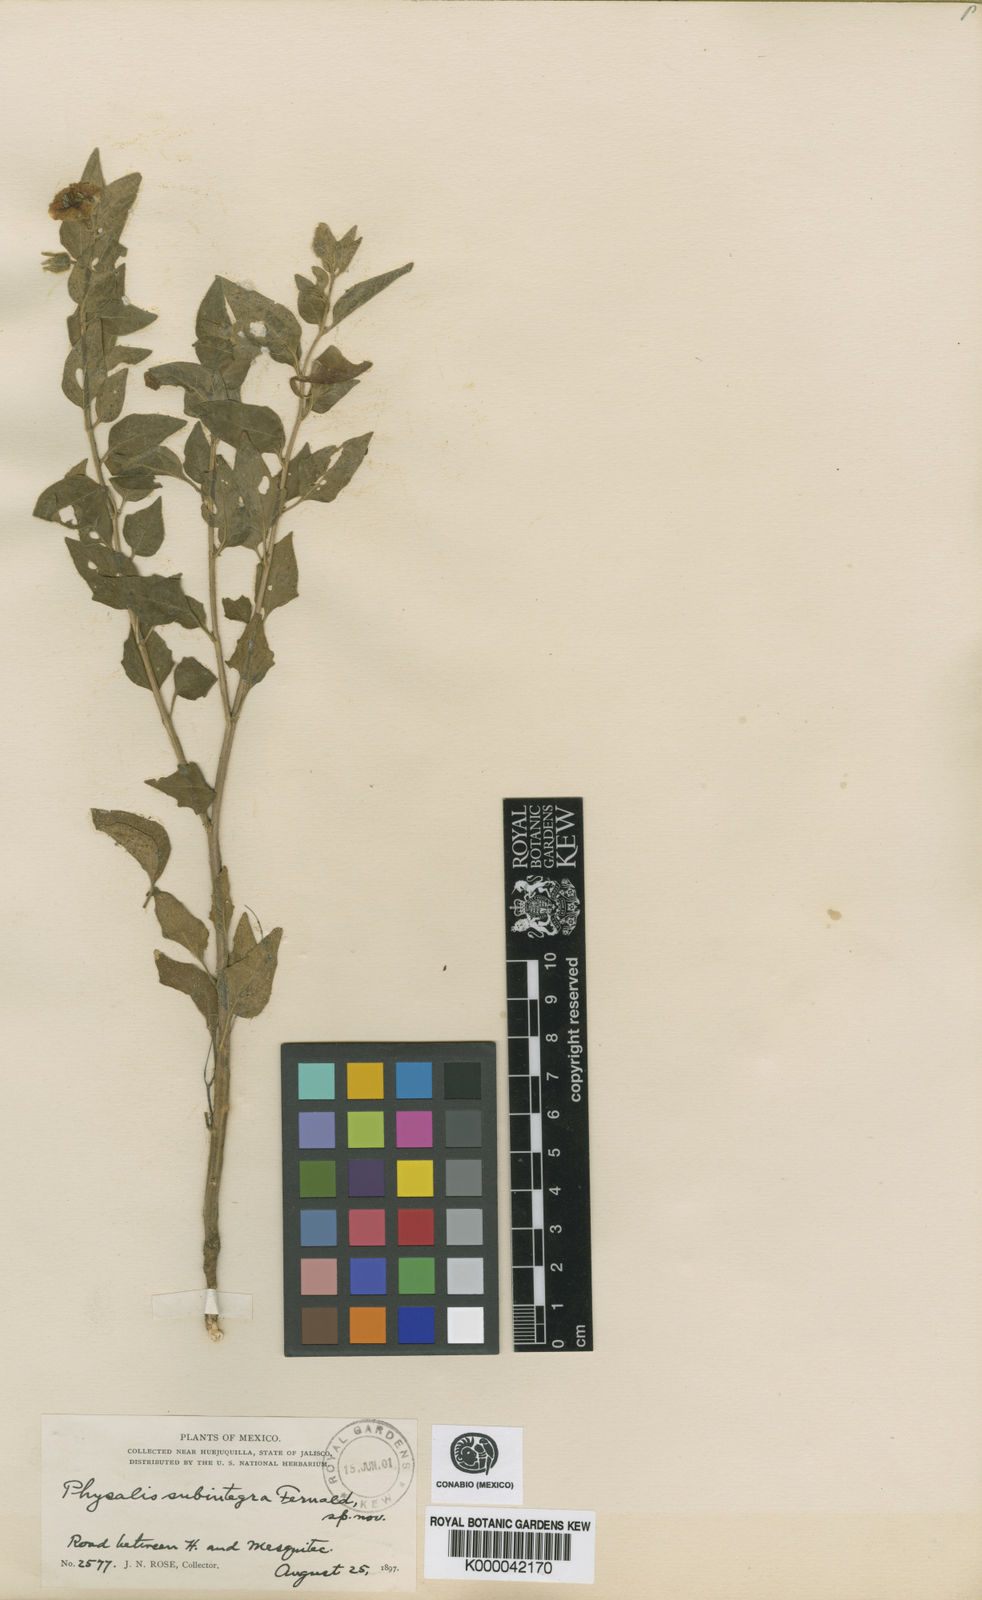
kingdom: Plantae
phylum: Tracheophyta
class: Magnoliopsida
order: Solanales
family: Solanaceae
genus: Physalis
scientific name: Physalis orizabae
